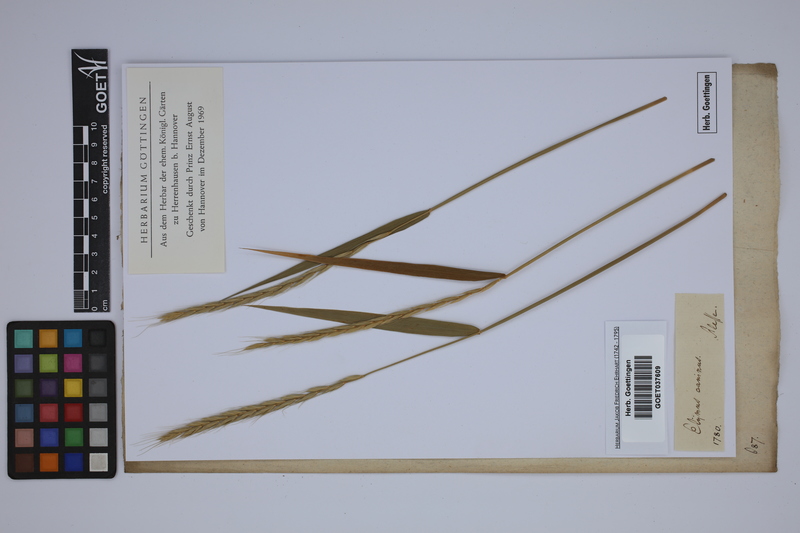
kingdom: Plantae
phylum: Tracheophyta
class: Liliopsida
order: Poales
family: Poaceae
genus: Elymus
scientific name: Elymus caninus
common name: Bearded couch
